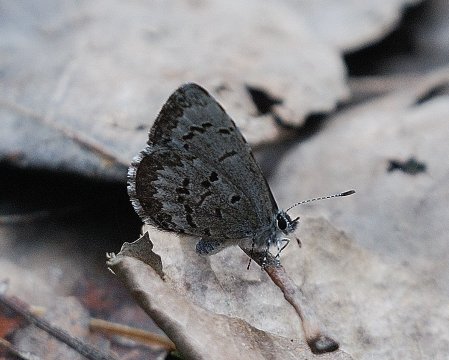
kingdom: Animalia
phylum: Arthropoda
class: Insecta
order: Lepidoptera
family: Lycaenidae
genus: Celastrina
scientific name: Celastrina lucia
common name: Northern Spring Azure
